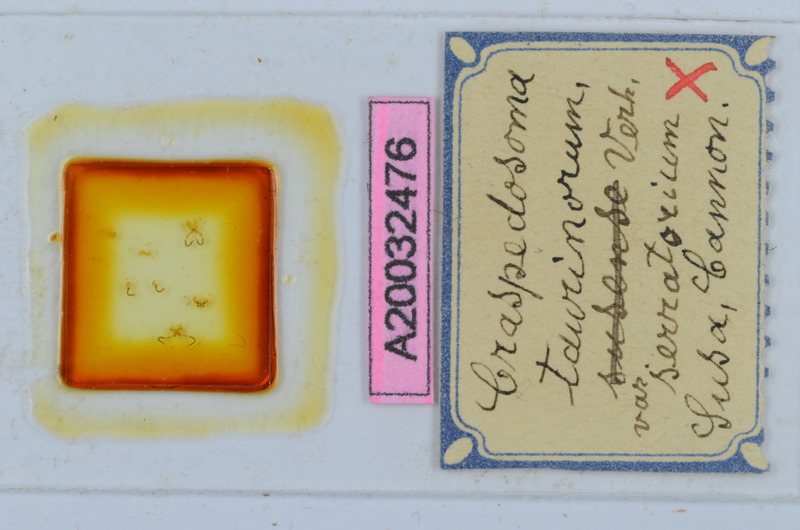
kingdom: Animalia
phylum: Arthropoda
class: Diplopoda
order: Chordeumatida
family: Craspedosomatidae
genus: Craspedosoma
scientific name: Craspedosoma taurinorum
